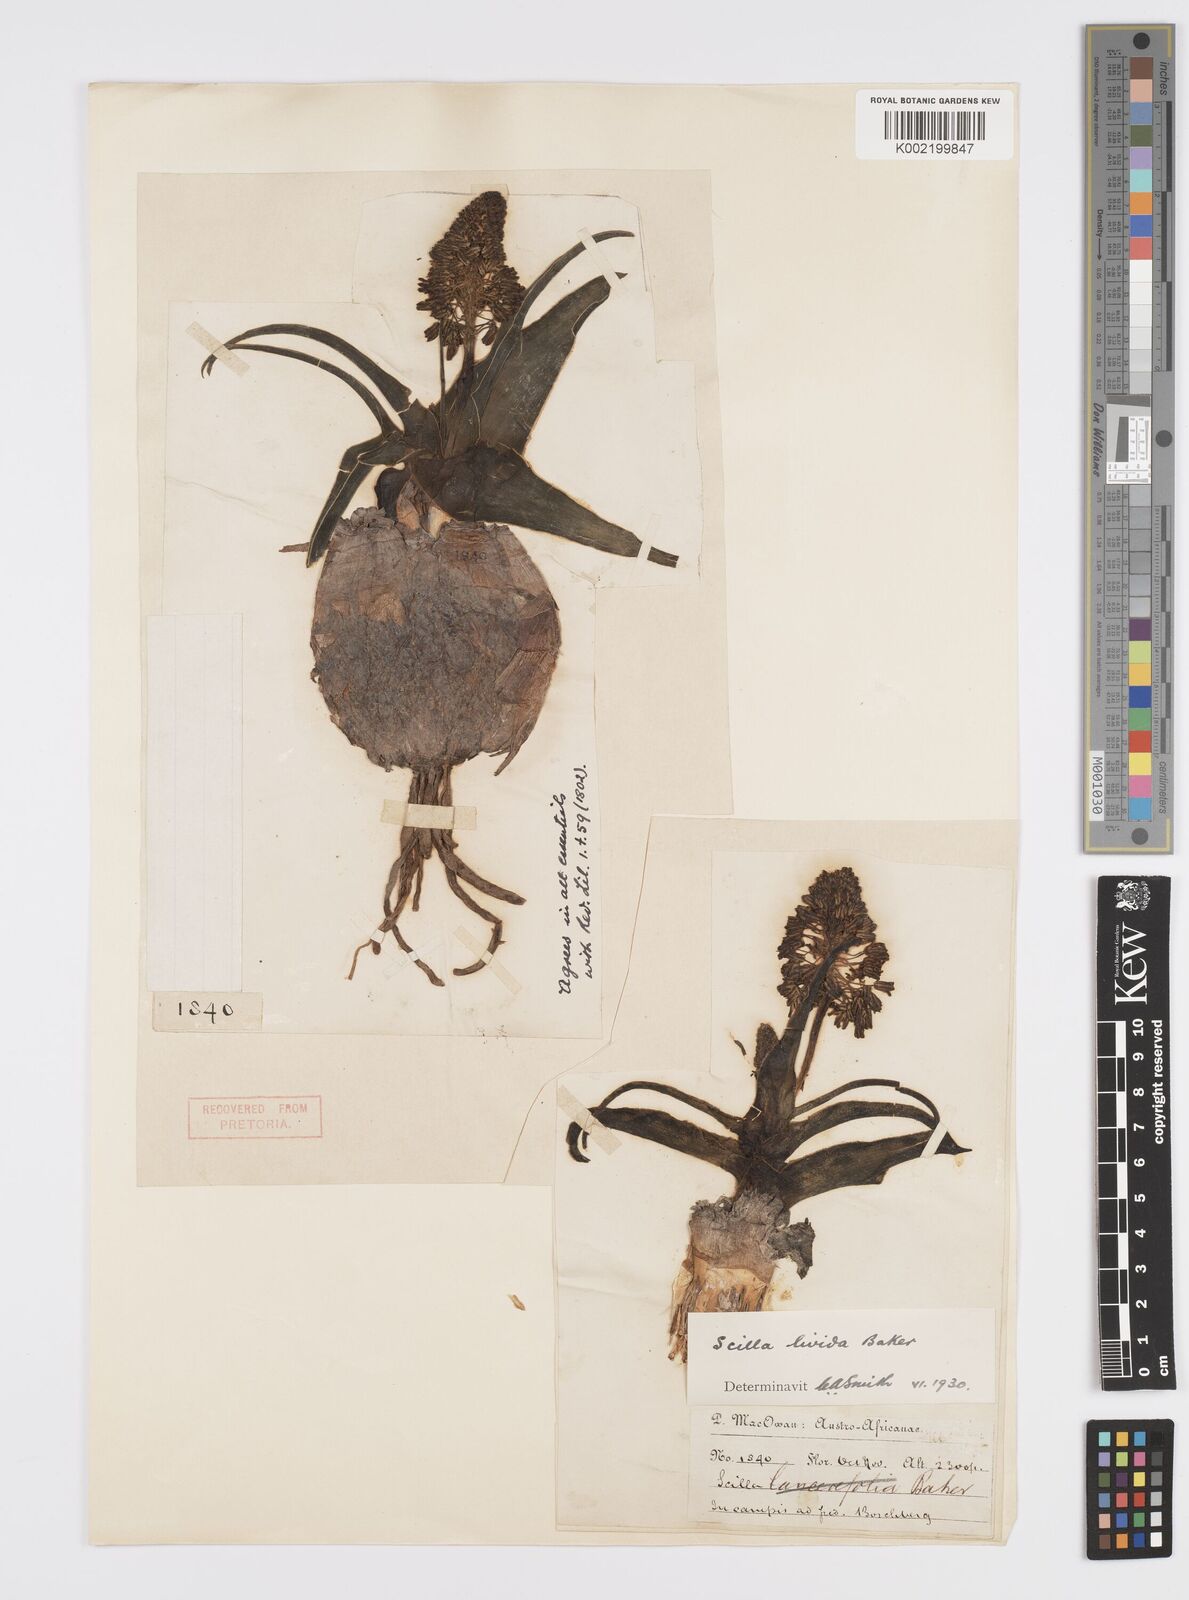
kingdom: Plantae
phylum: Tracheophyta
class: Liliopsida
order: Asparagales
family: Asparagaceae
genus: Ledebouria
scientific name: Ledebouria floribunda
